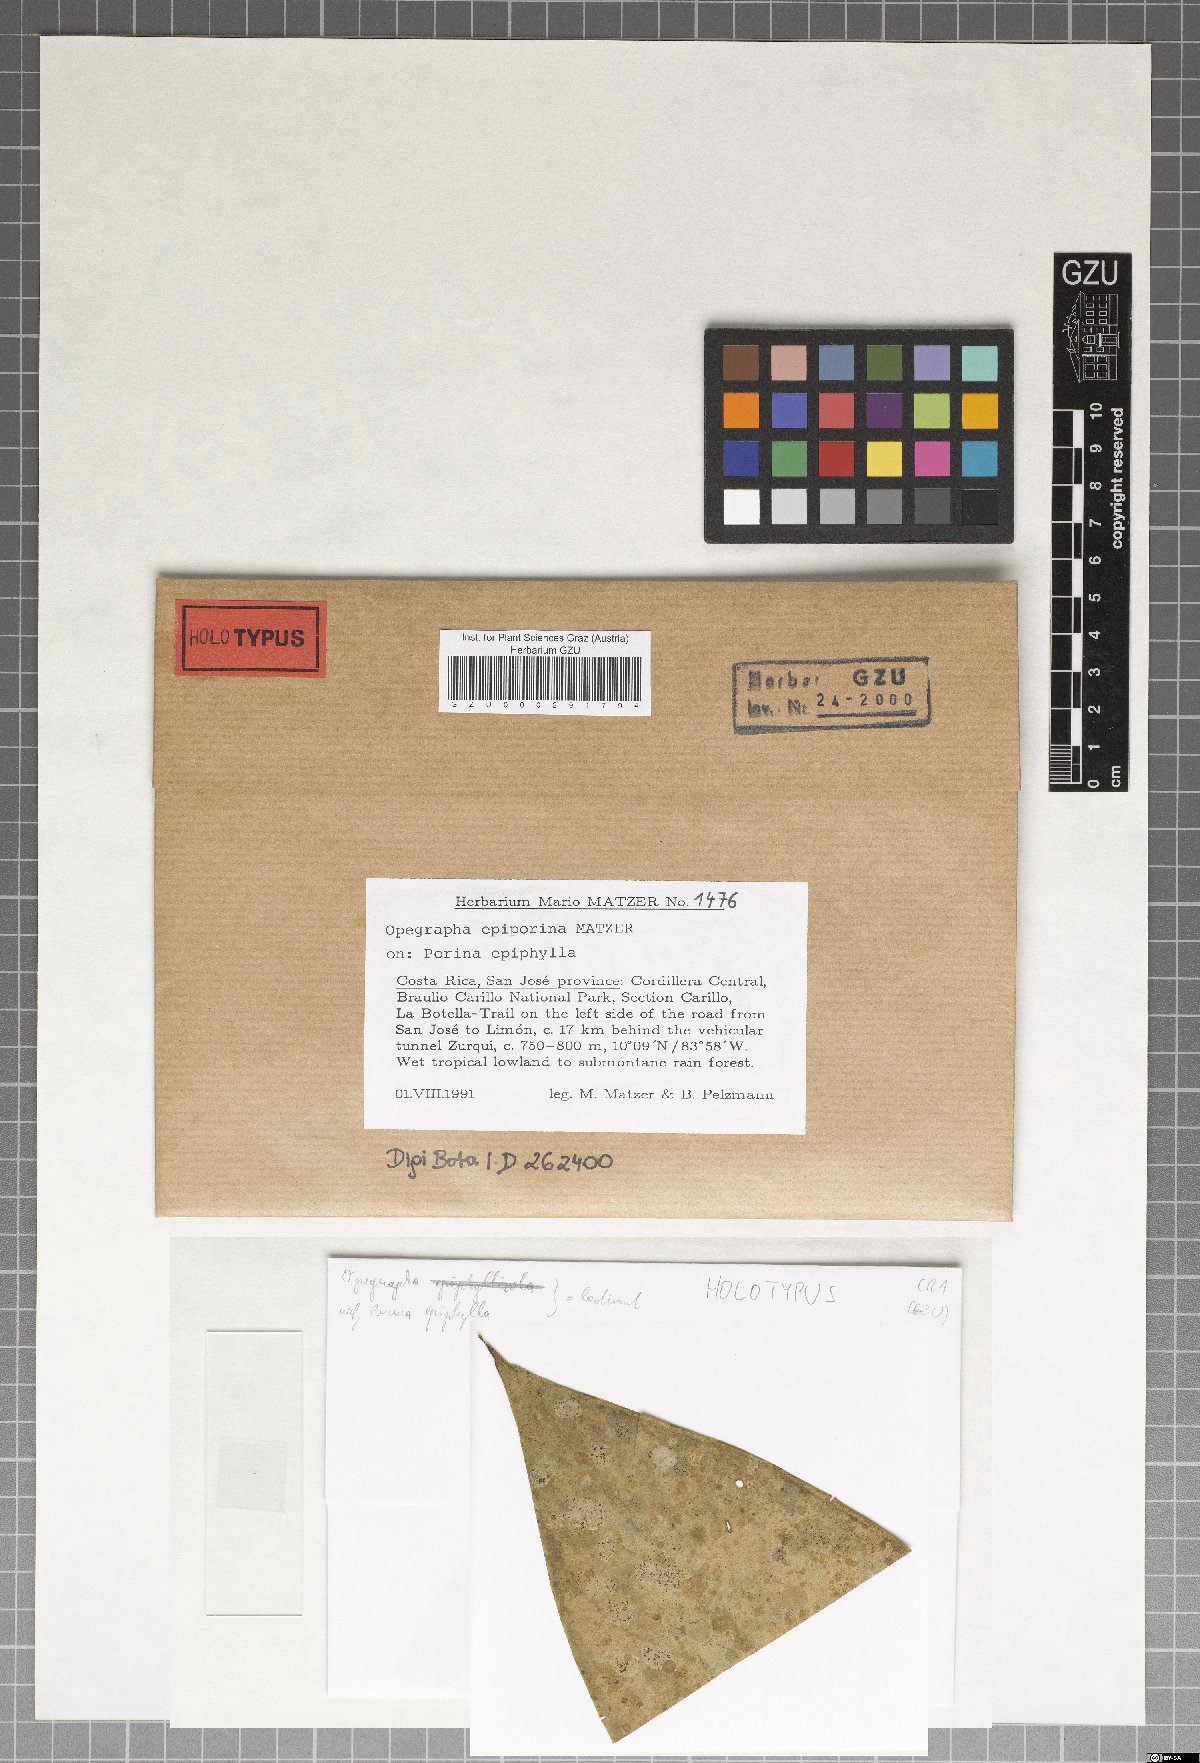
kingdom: Fungi
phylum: Ascomycota
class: Arthoniomycetes
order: Arthoniales
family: Opegraphaceae
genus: Opegrapha
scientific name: Opegrapha epiporina
